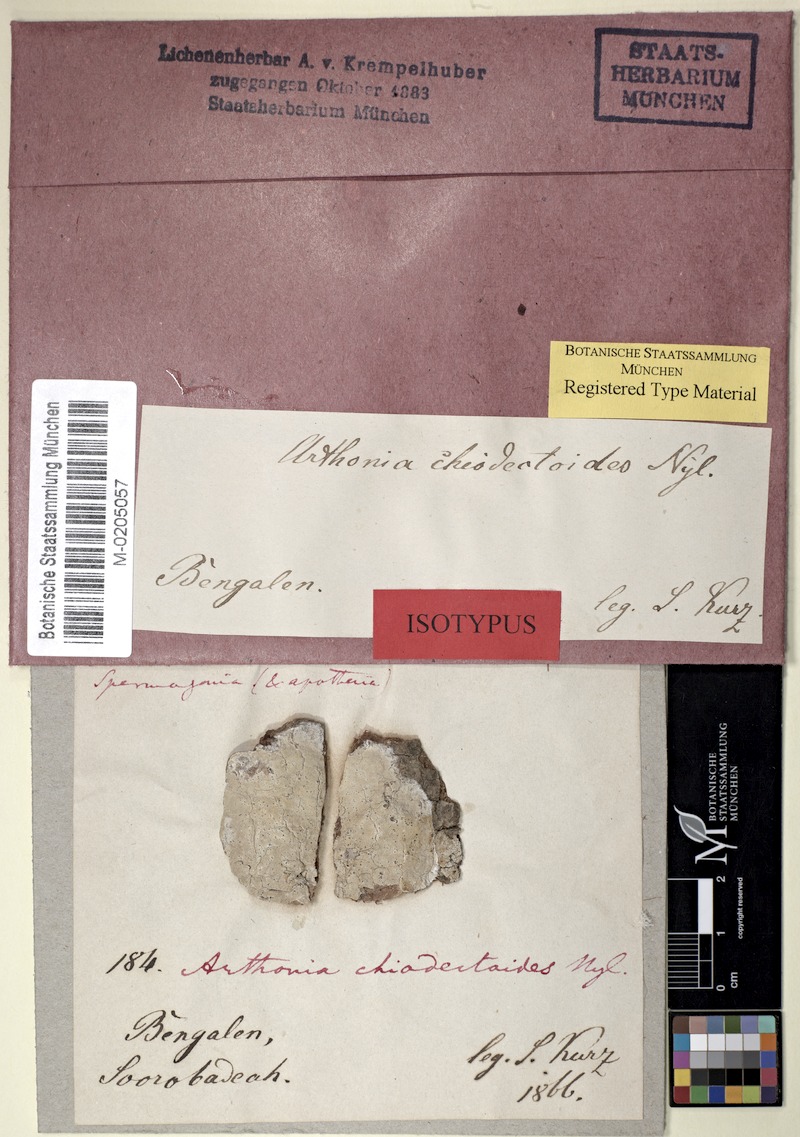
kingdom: Fungi
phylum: Ascomycota
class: Arthoniomycetes
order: Arthoniales
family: Arthoniaceae
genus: Arthothelium
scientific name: Arthothelium
